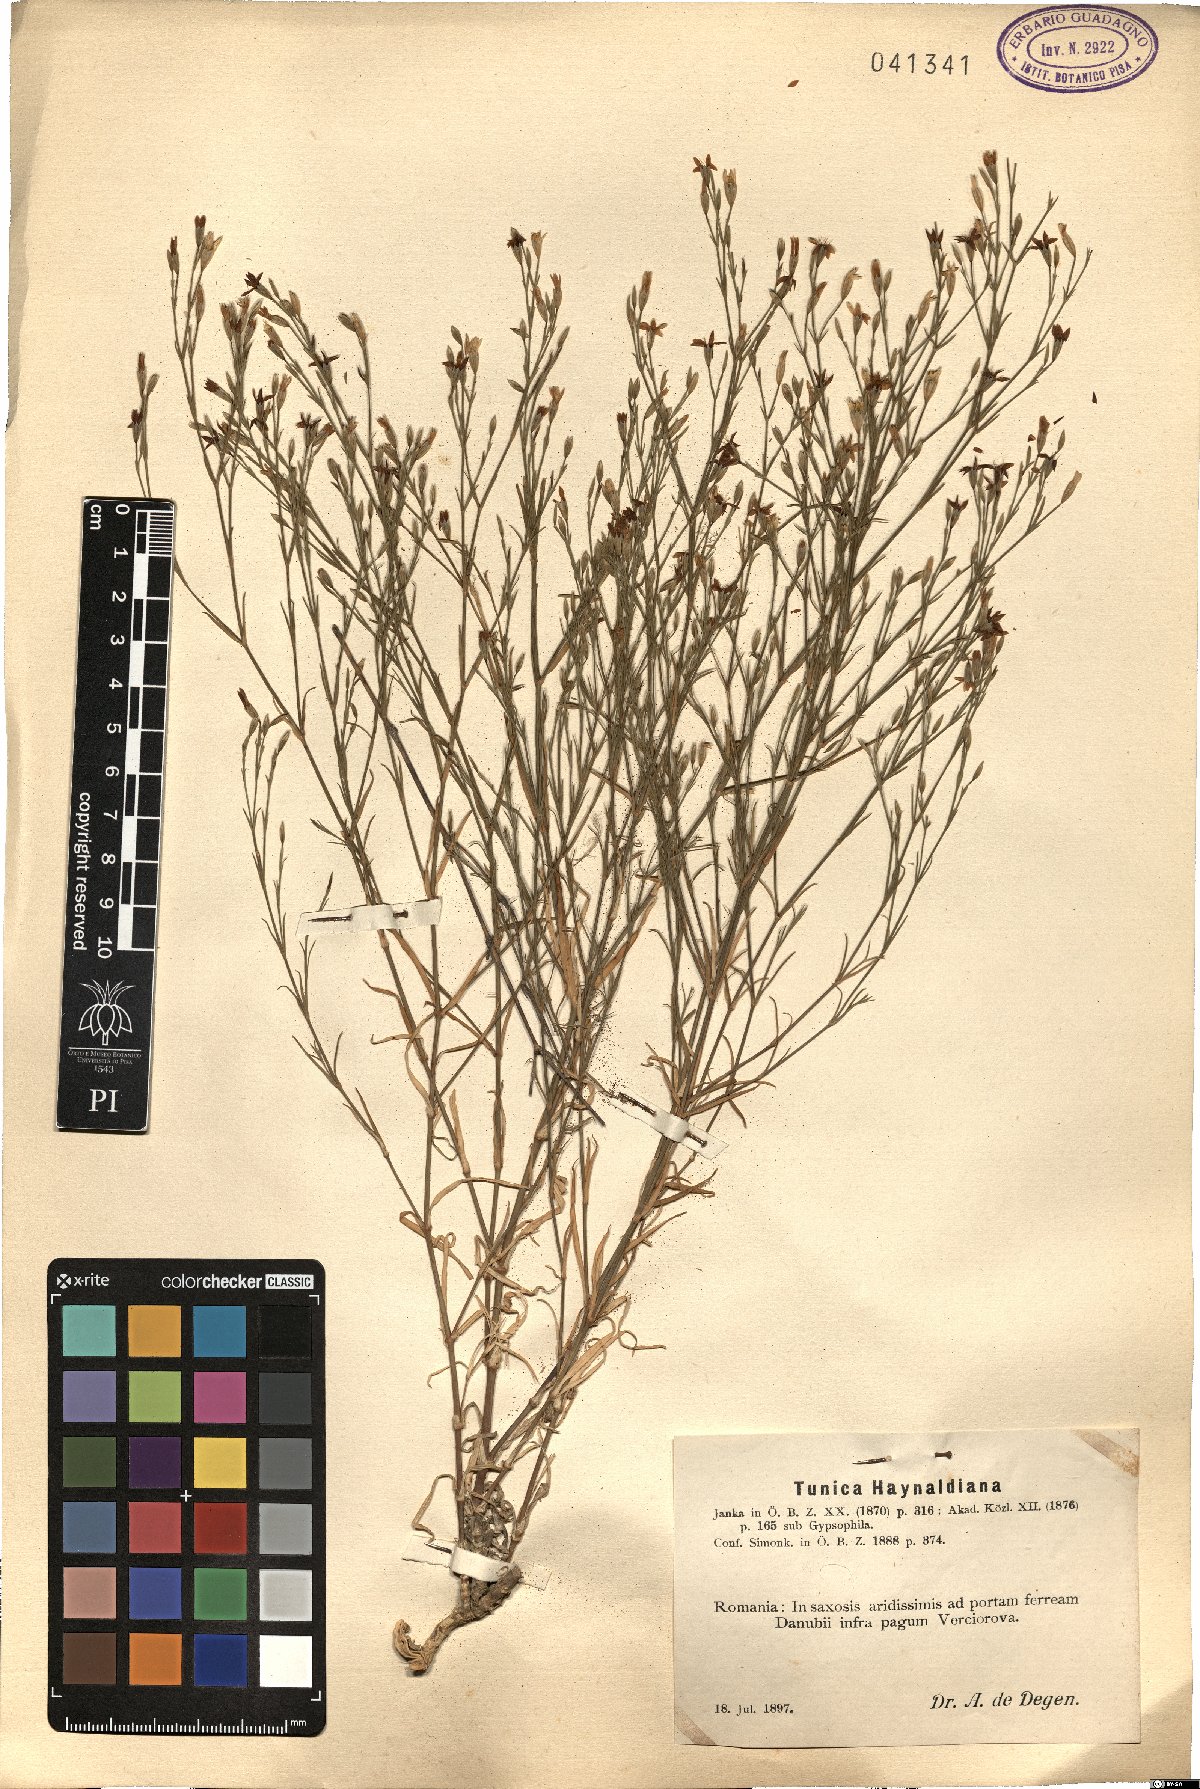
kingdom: Plantae
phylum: Tracheophyta
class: Magnoliopsida
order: Caryophyllales
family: Caryophyllaceae
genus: Dianthus
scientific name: Dianthus illyricus
